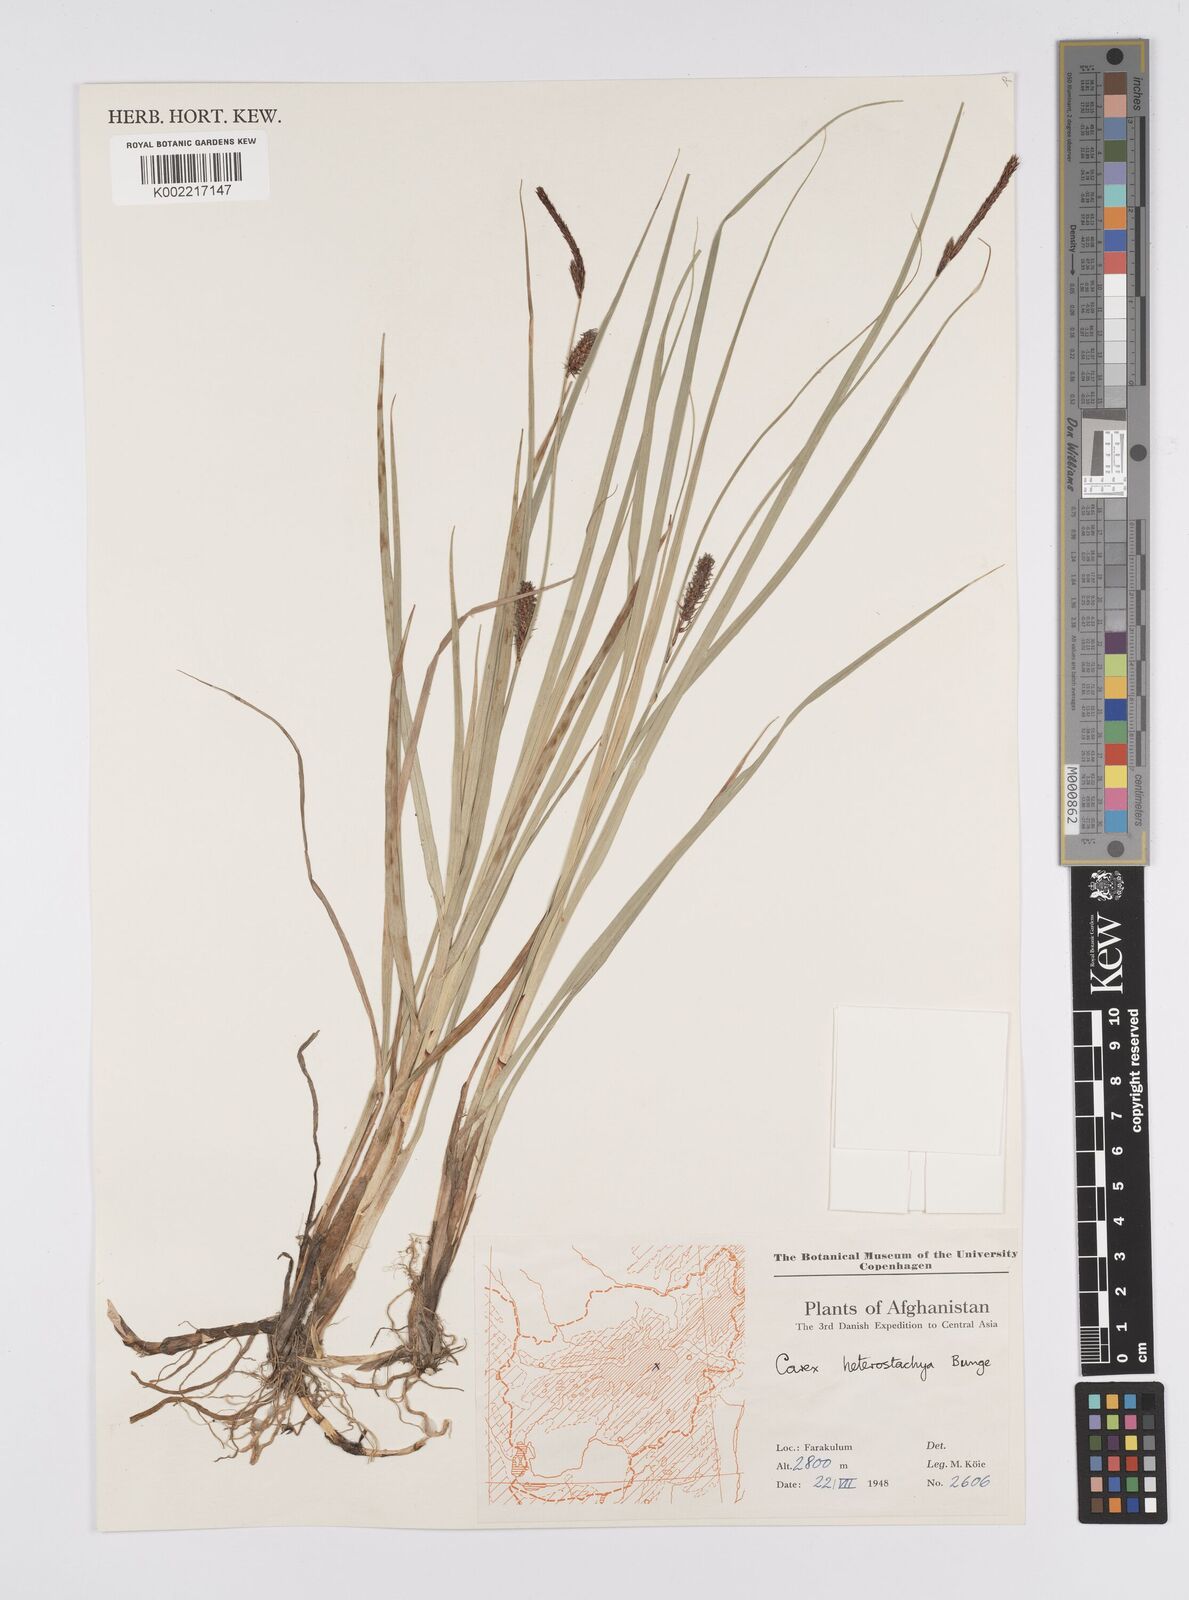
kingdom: Plantae
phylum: Tracheophyta
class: Liliopsida
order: Poales
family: Cyperaceae
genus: Carex
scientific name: Carex heterostachya
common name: Different-spike sedge
